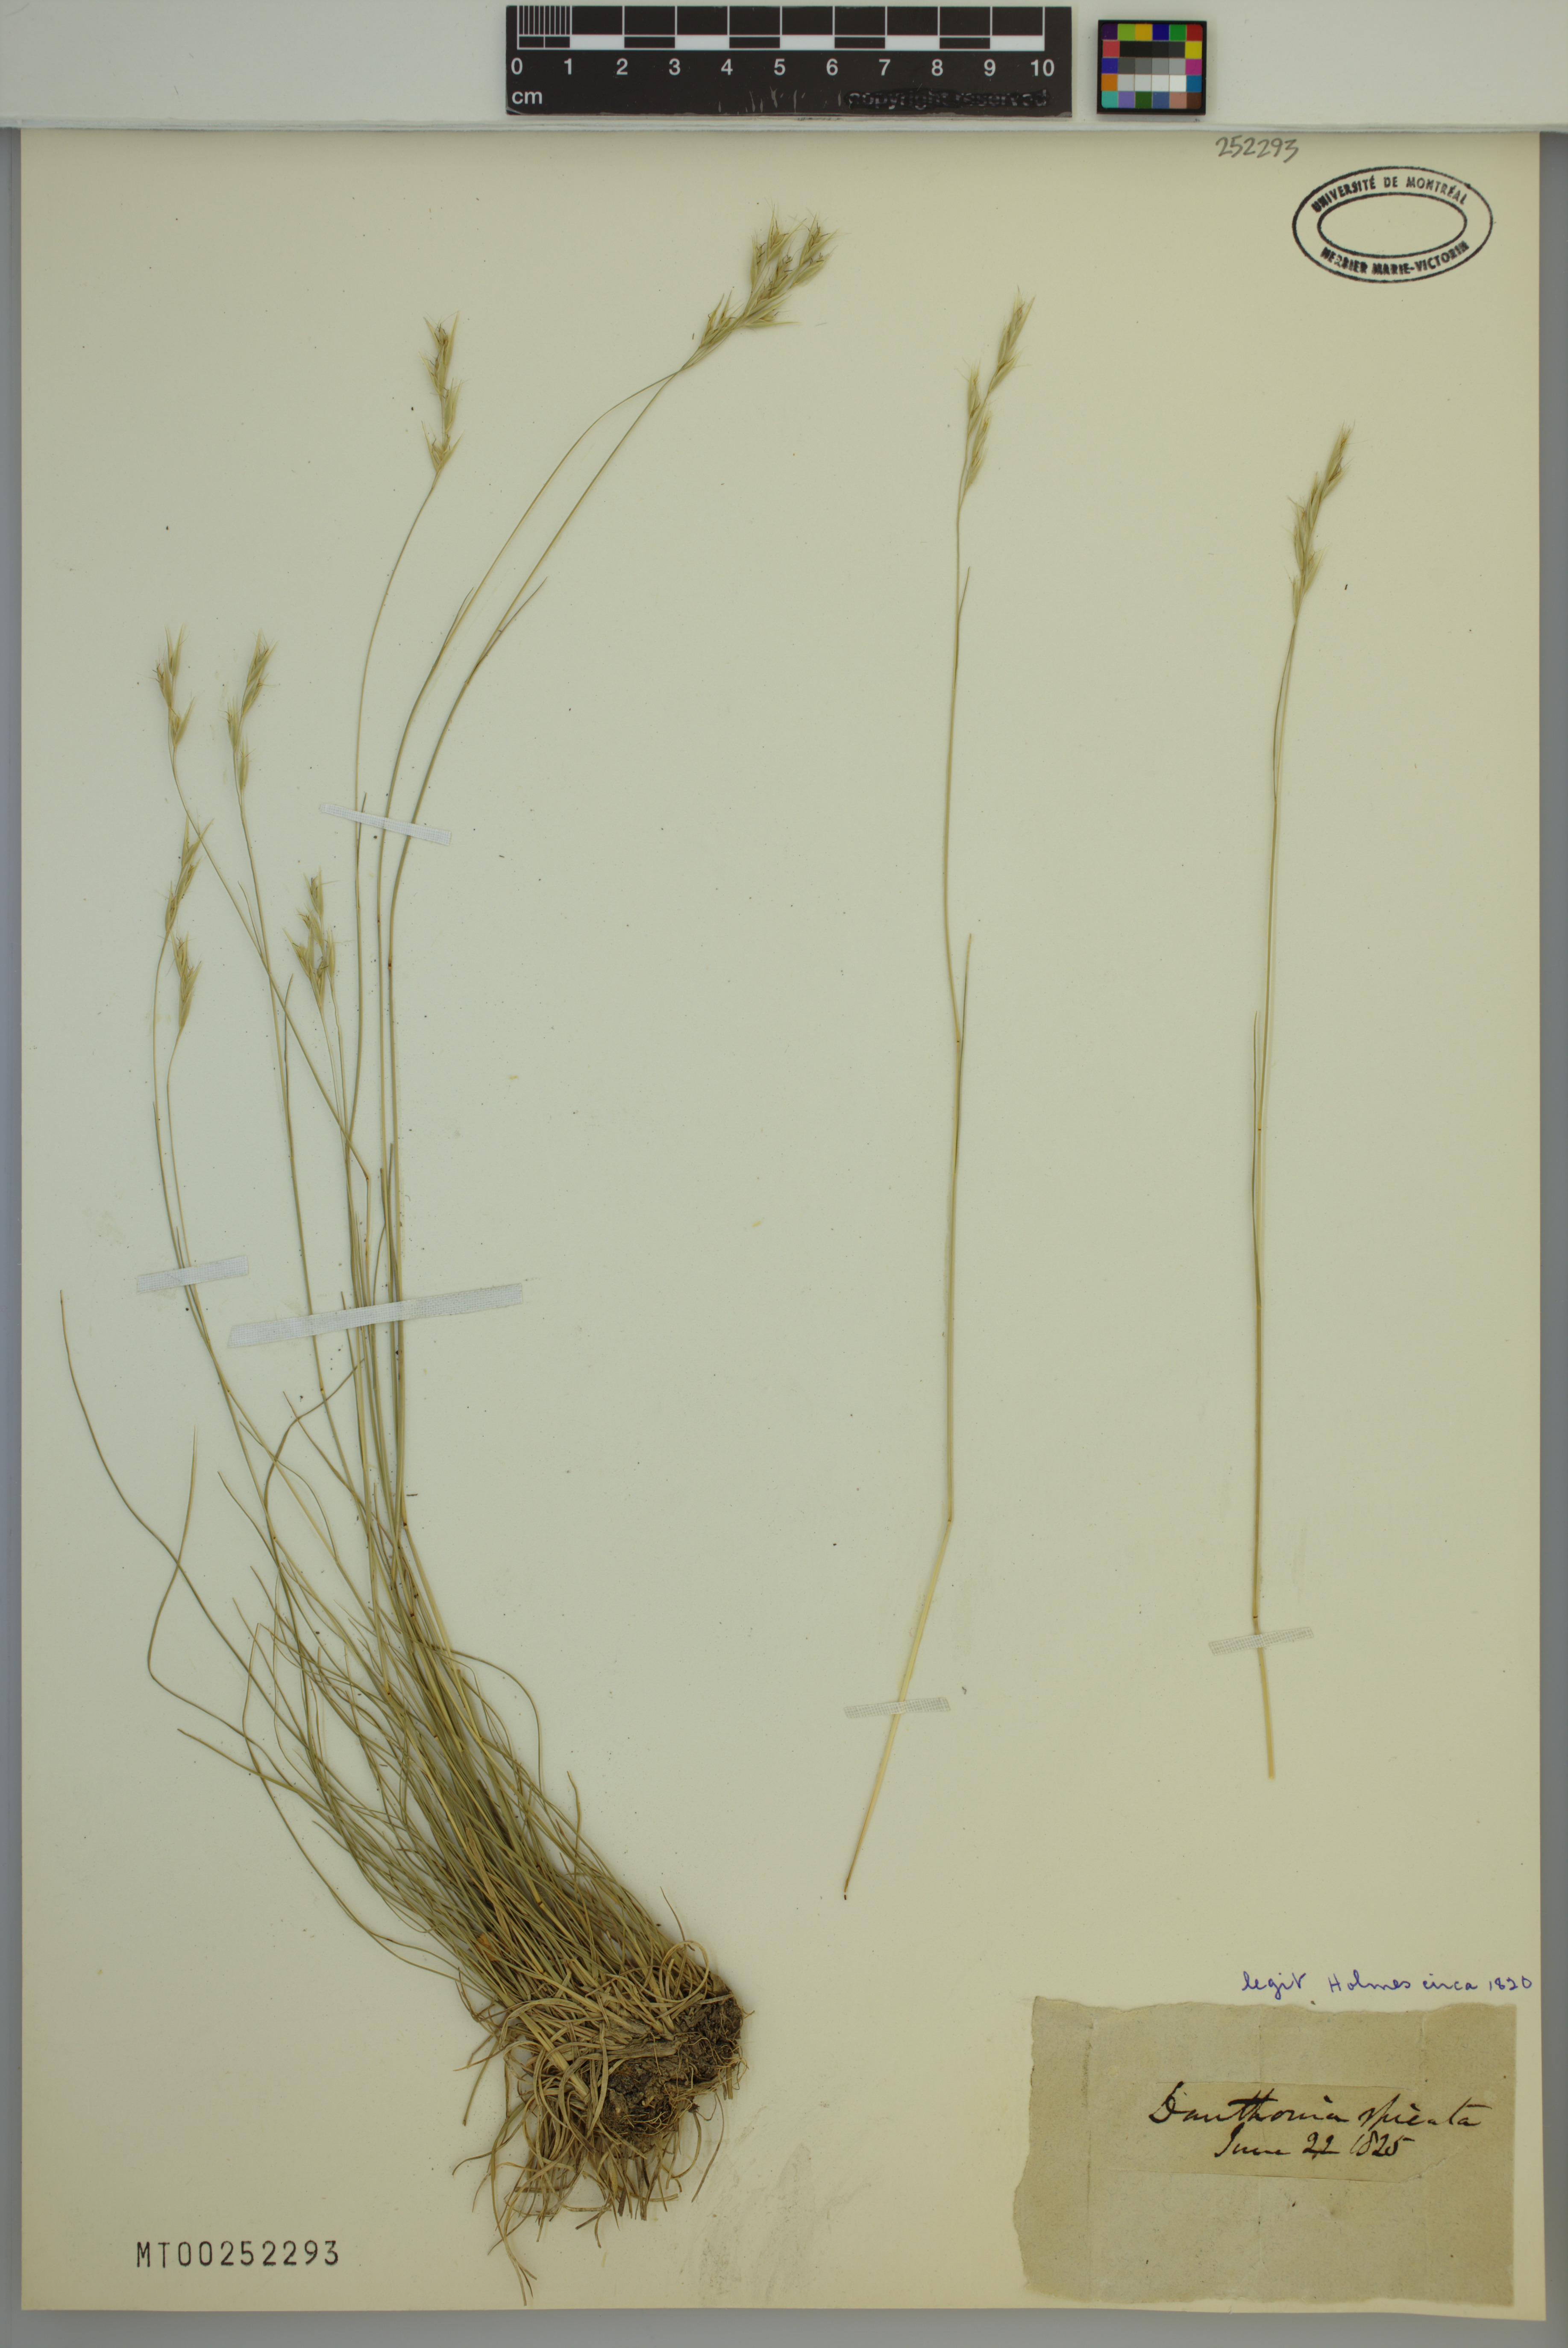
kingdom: Plantae
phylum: Tracheophyta
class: Liliopsida
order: Poales
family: Poaceae
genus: Danthonia
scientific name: Danthonia spicata
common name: Common wild oatgrass
